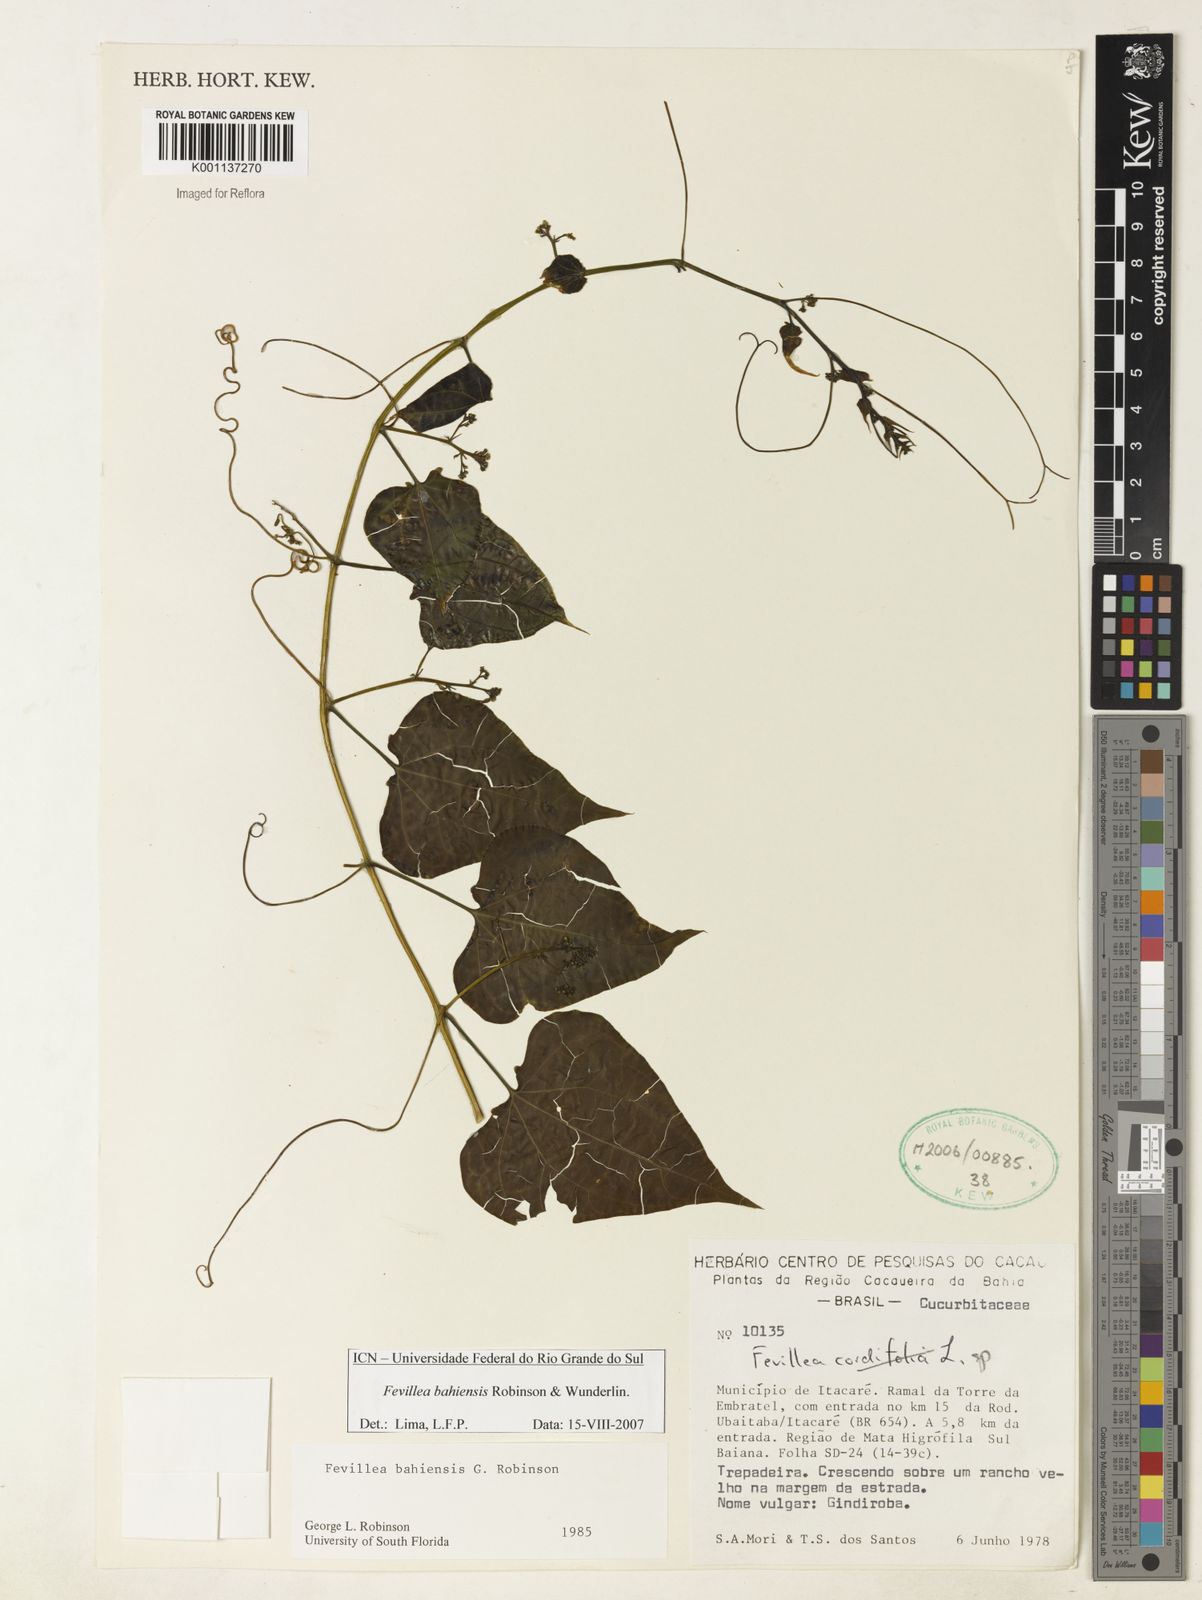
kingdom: Plantae
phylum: Tracheophyta
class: Magnoliopsida
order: Cucurbitales
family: Cucurbitaceae
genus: Fevillea
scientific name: Fevillea bahiensis
